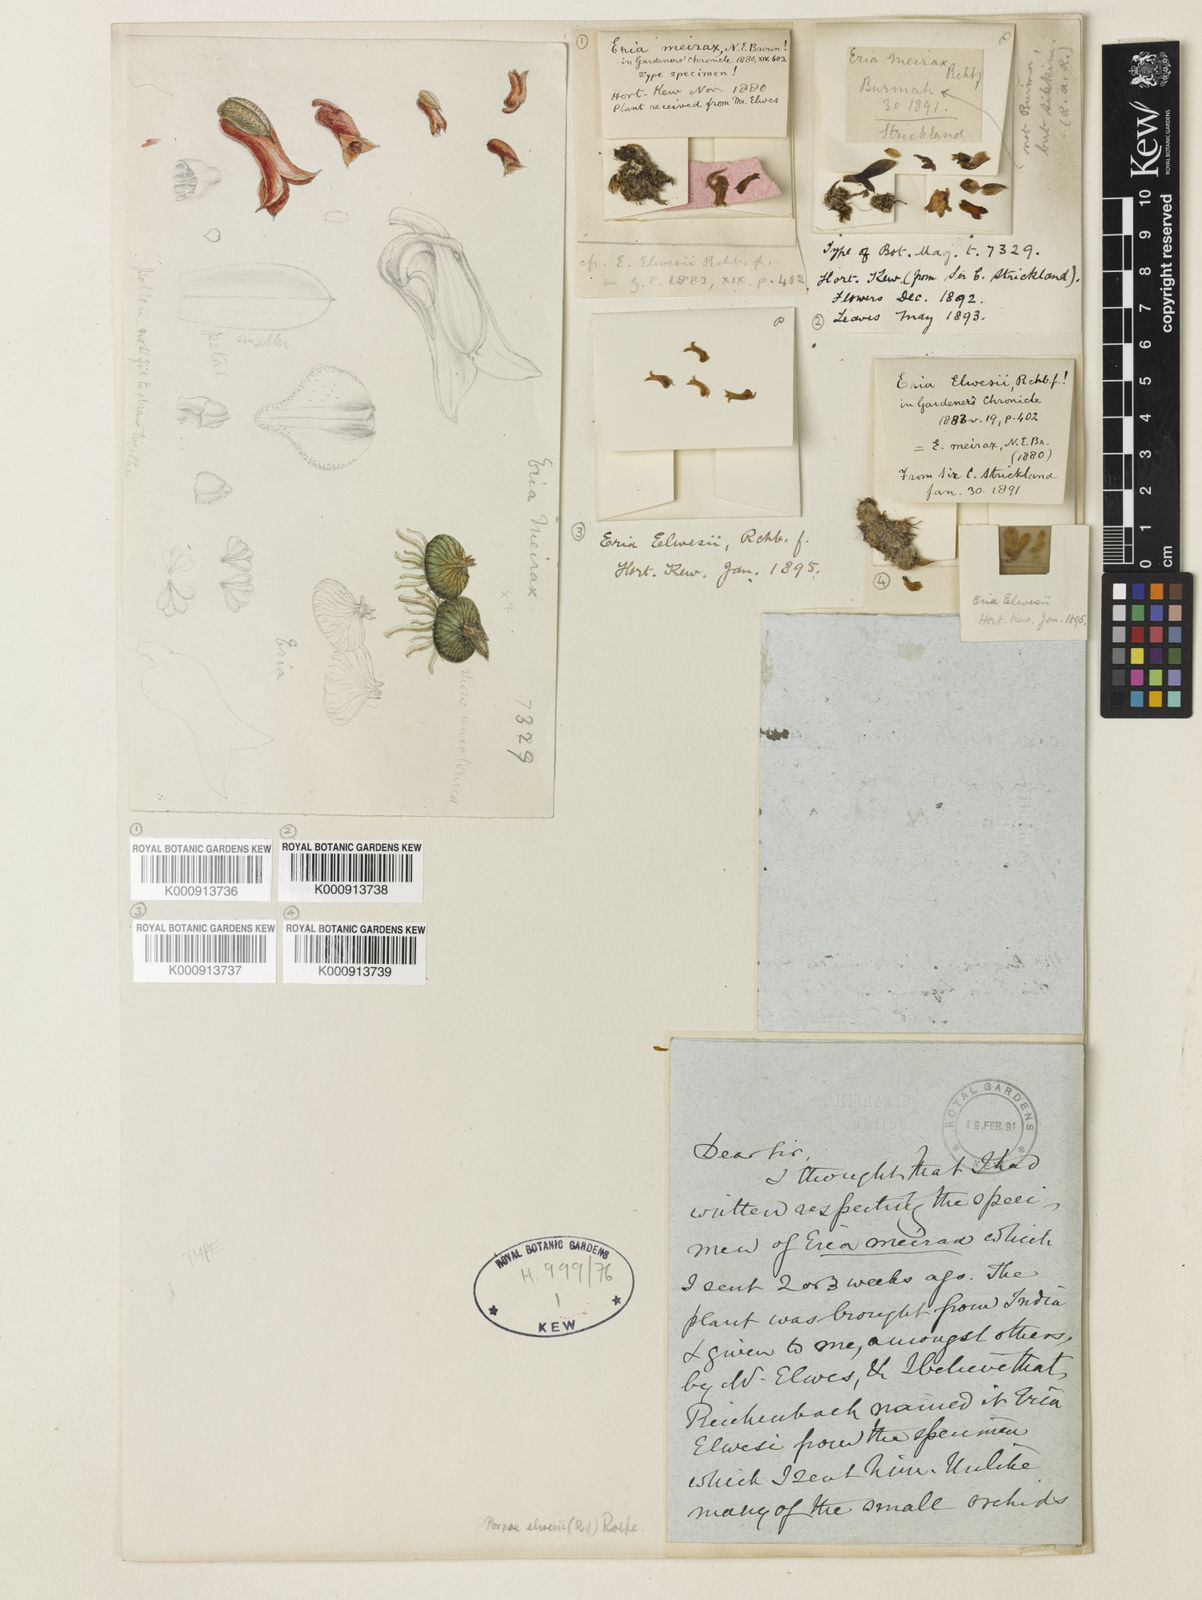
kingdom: Plantae
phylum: Tracheophyta
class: Liliopsida
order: Asparagales
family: Orchidaceae
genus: Porpax
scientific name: Porpax elwesii
